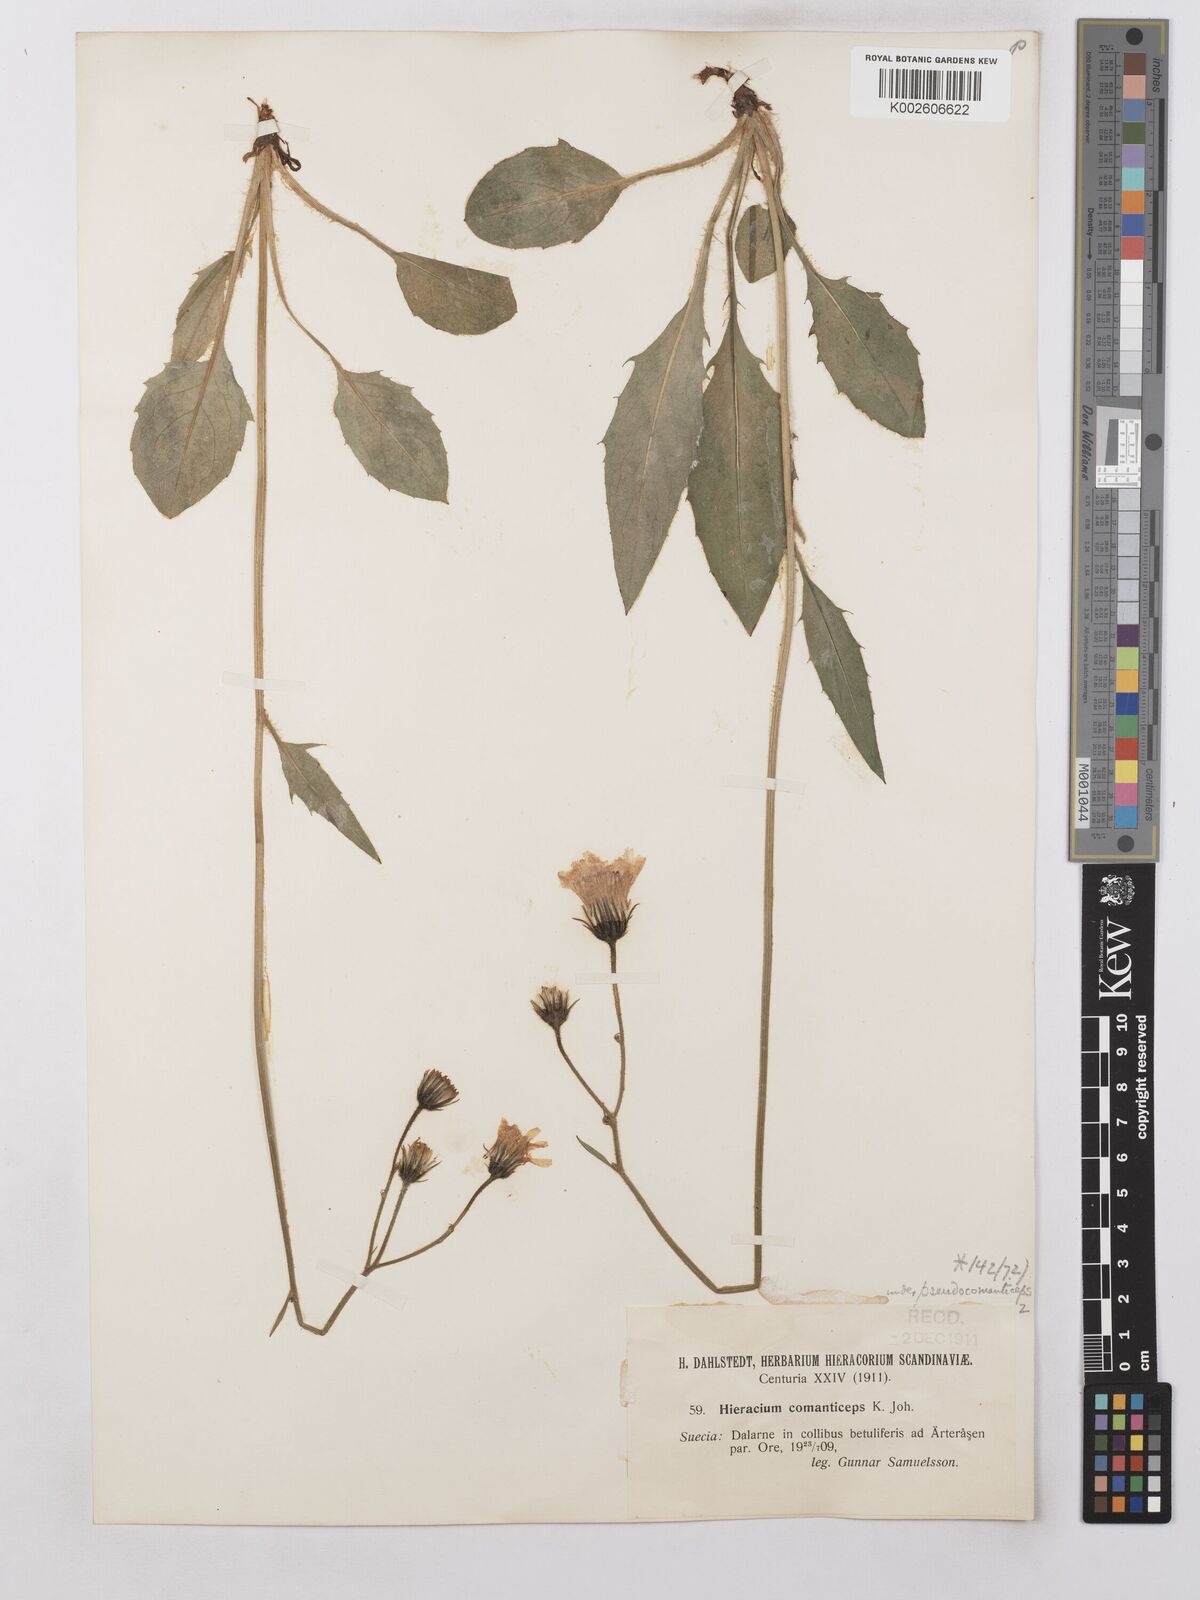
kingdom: Plantae
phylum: Tracheophyta
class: Magnoliopsida
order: Asterales
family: Asteraceae
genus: Hieracium
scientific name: Hieracium lachenalii
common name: Common hawkweed
